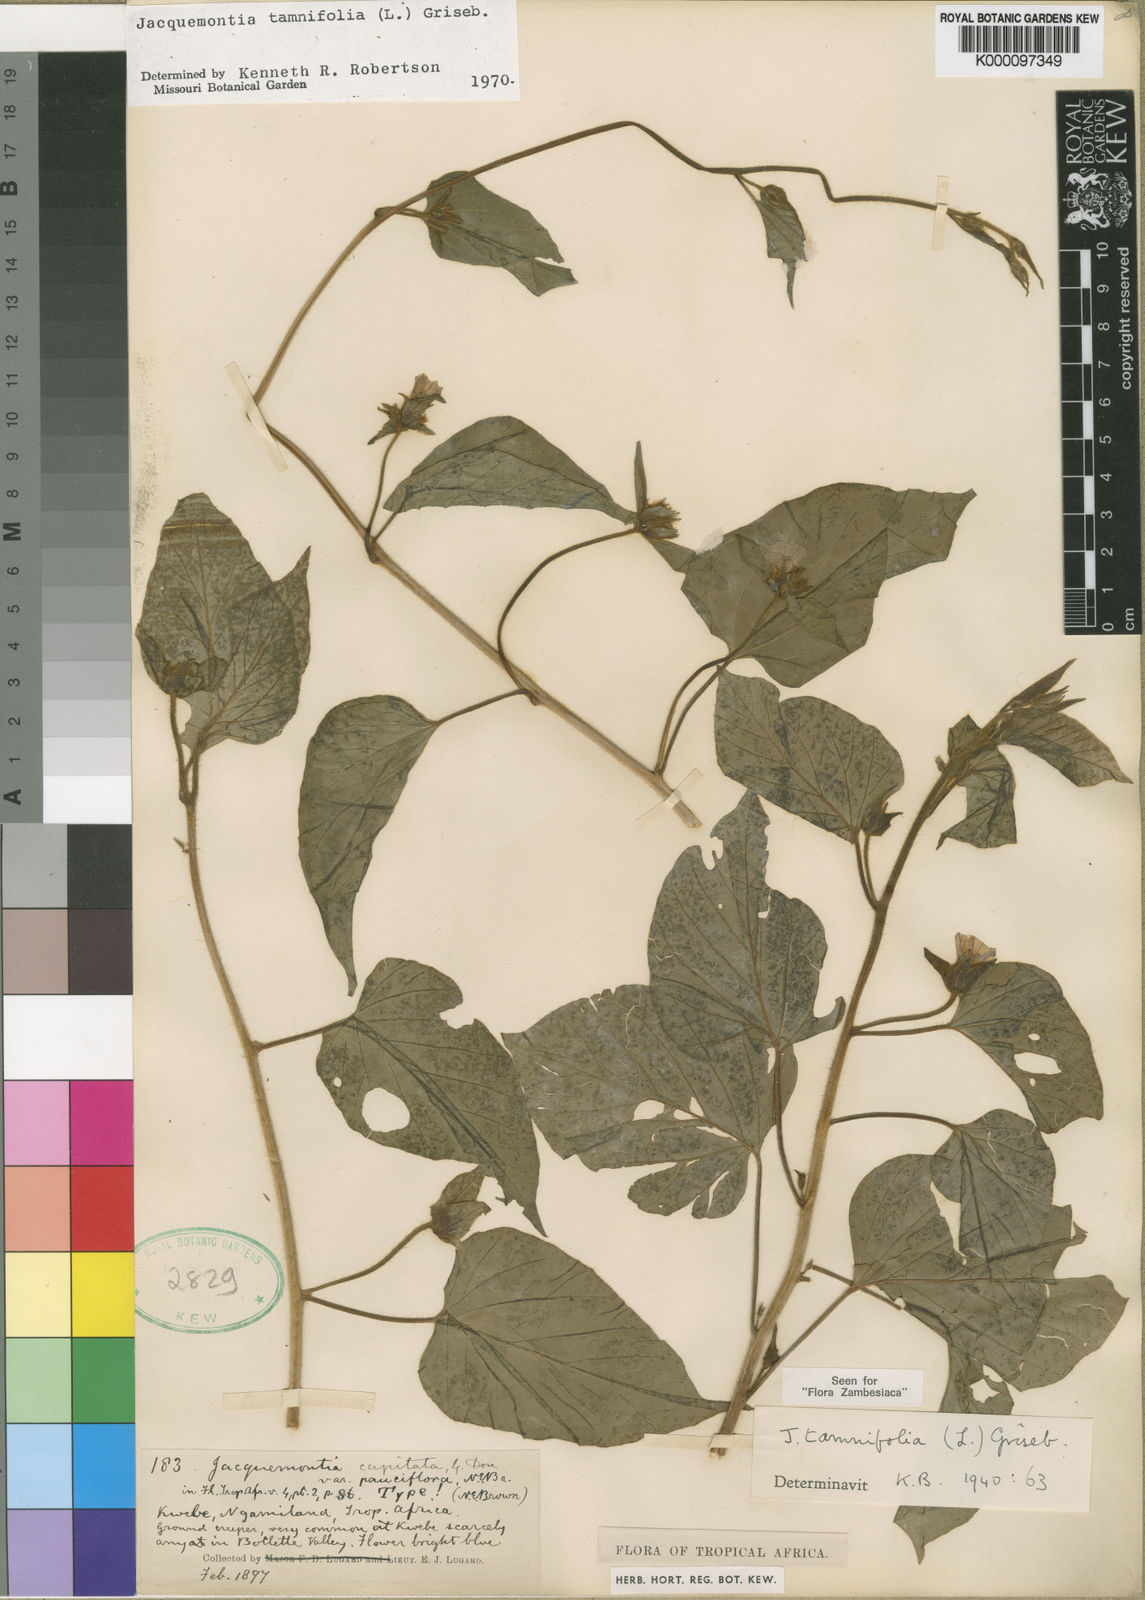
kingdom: Plantae
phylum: Tracheophyta
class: Magnoliopsida
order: Solanales
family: Convolvulaceae
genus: Jacquemontia
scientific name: Jacquemontia tamnifolia
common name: Hairy clustervine
